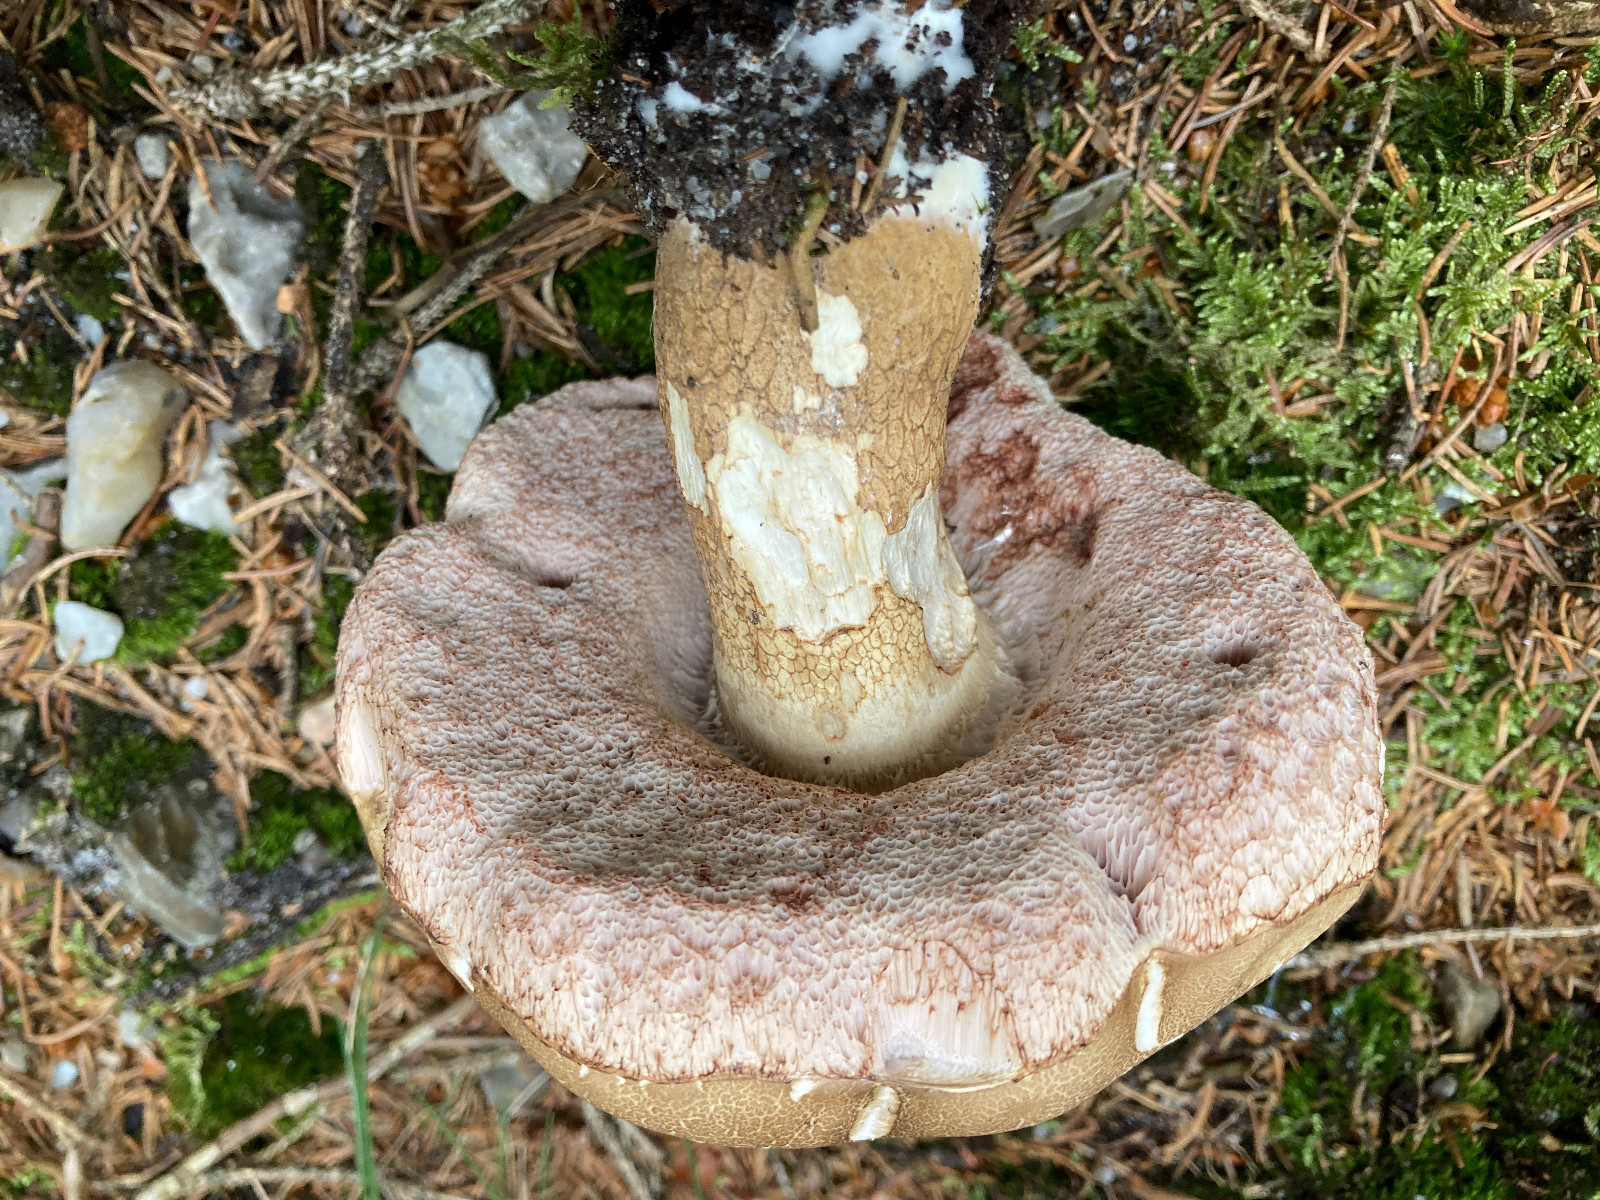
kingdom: Fungi
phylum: Basidiomycota
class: Agaricomycetes
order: Boletales
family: Boletaceae
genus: Tylopilus
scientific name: Tylopilus felleus
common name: galderørhat
